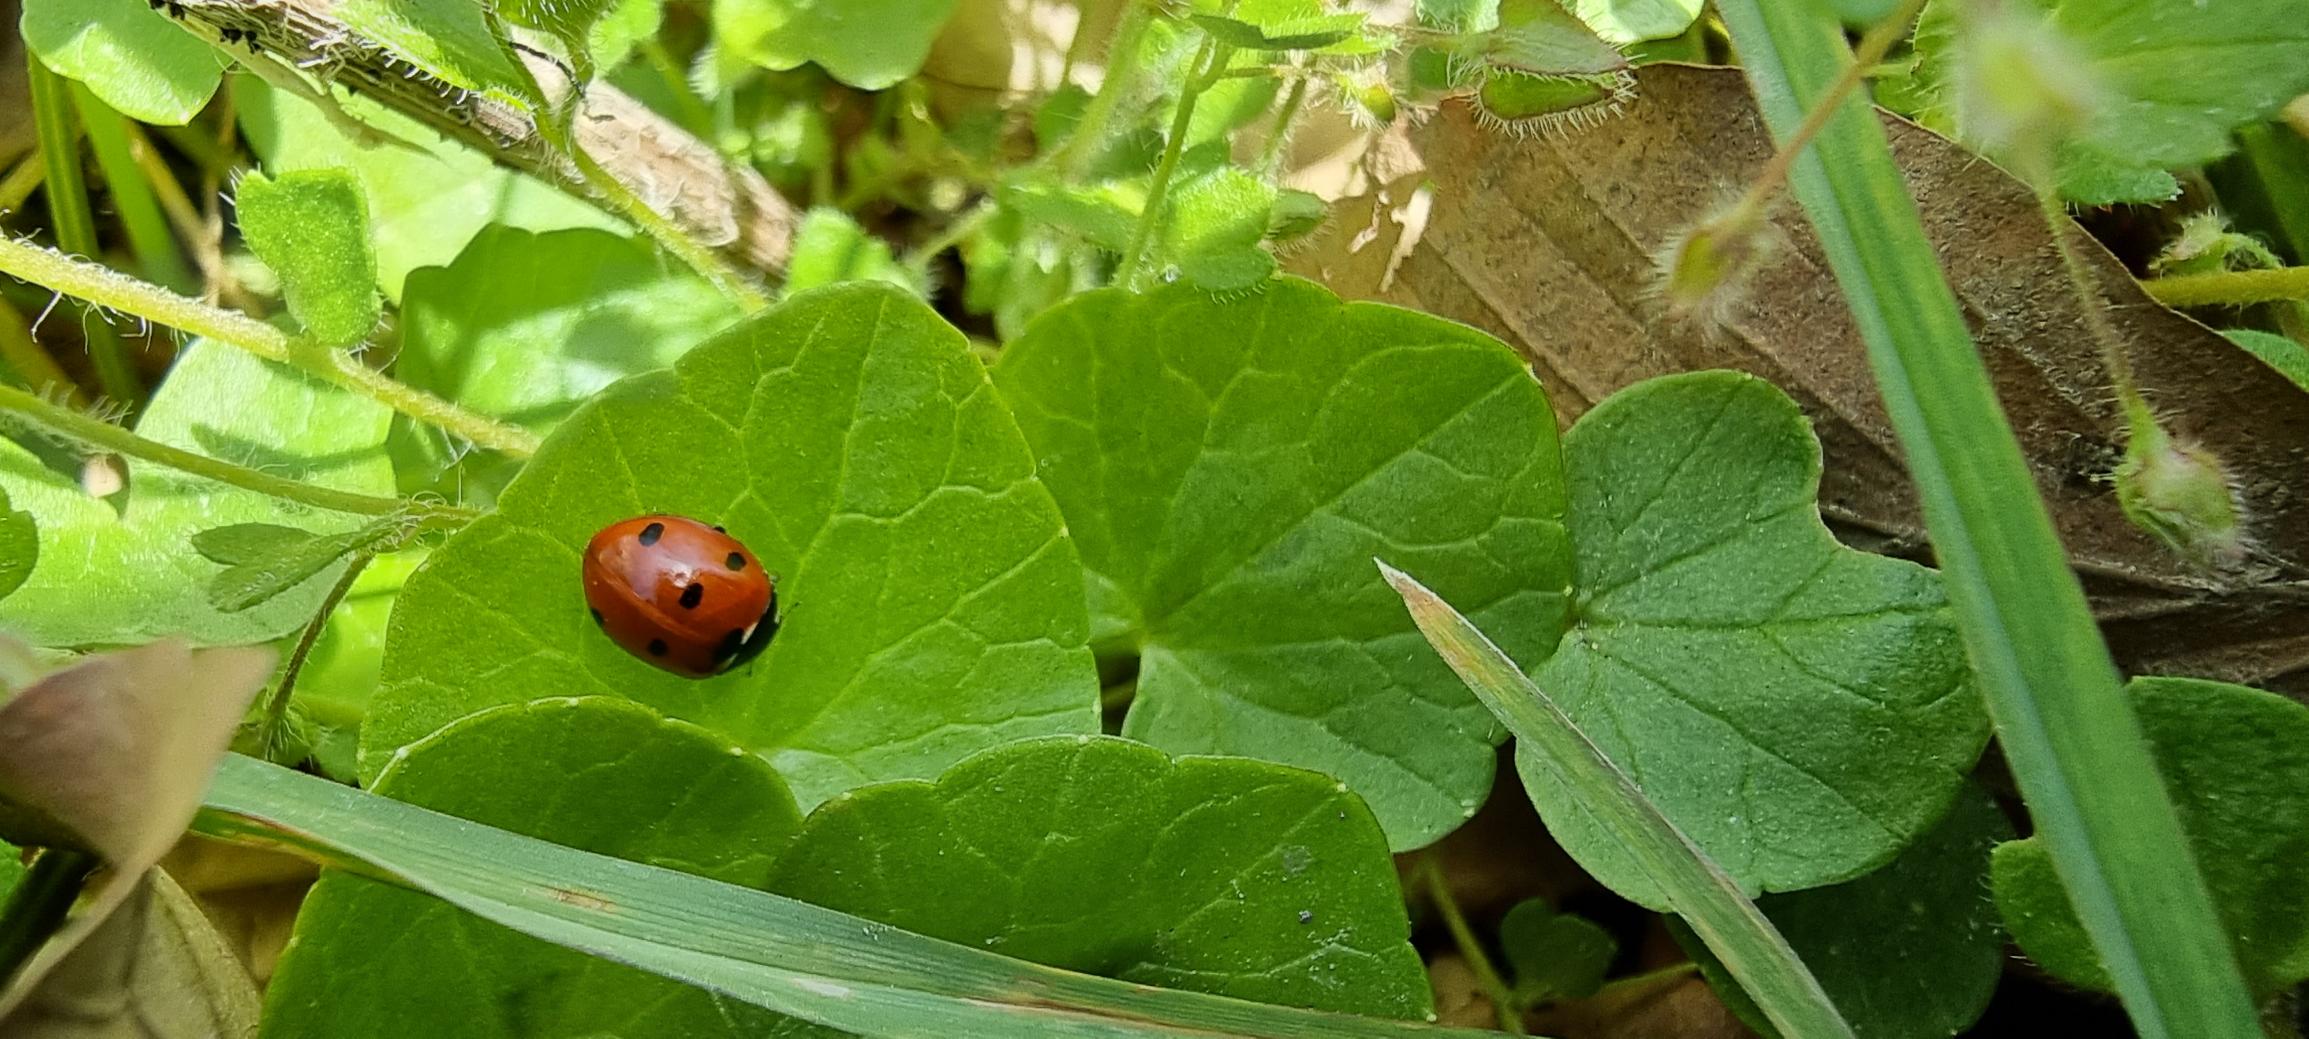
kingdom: Animalia
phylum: Arthropoda
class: Insecta
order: Coleoptera
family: Coccinellidae
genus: Coccinella
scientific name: Coccinella septempunctata
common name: Syvplettet mariehøne
